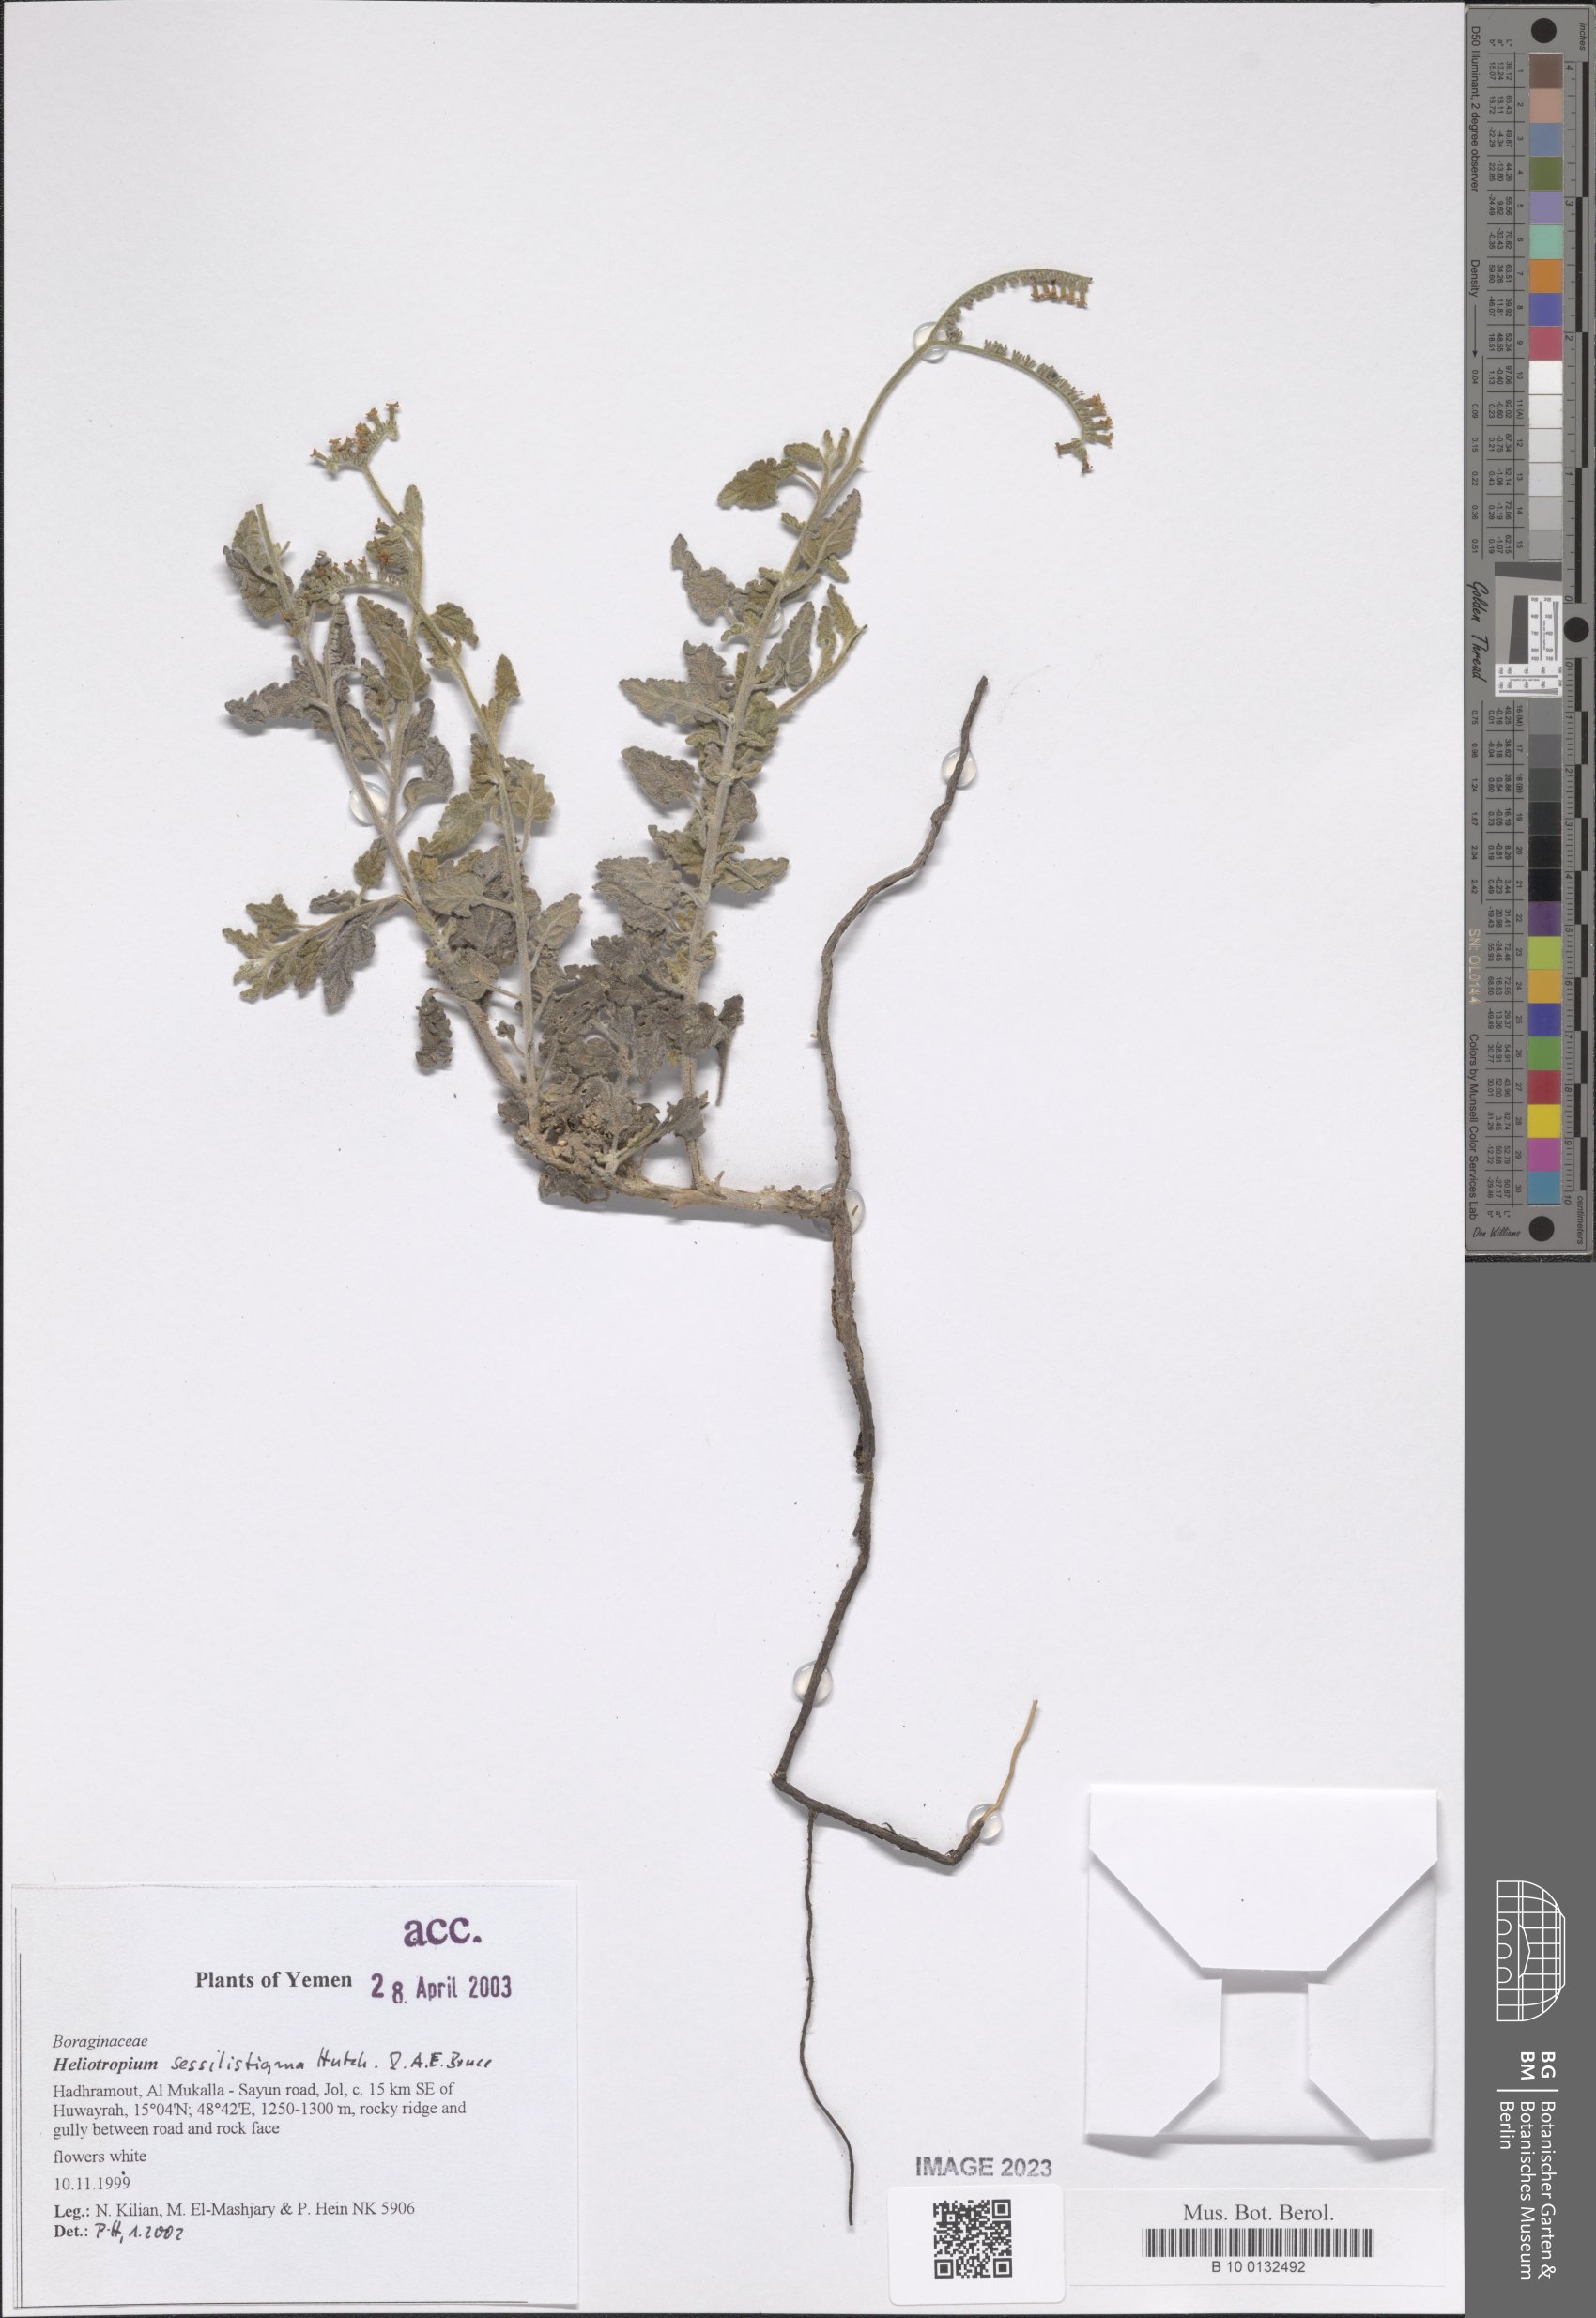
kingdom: Plantae
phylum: Tracheophyta
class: Magnoliopsida
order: Boraginales
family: Heliotropiaceae
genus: Euploca
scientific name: Euploca sessilistigma
